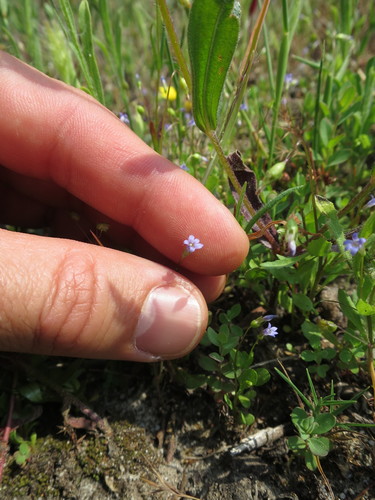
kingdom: Plantae
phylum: Tracheophyta
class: Magnoliopsida
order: Asterales
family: Campanulaceae
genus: Solenopsis
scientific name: Solenopsis laurentia
